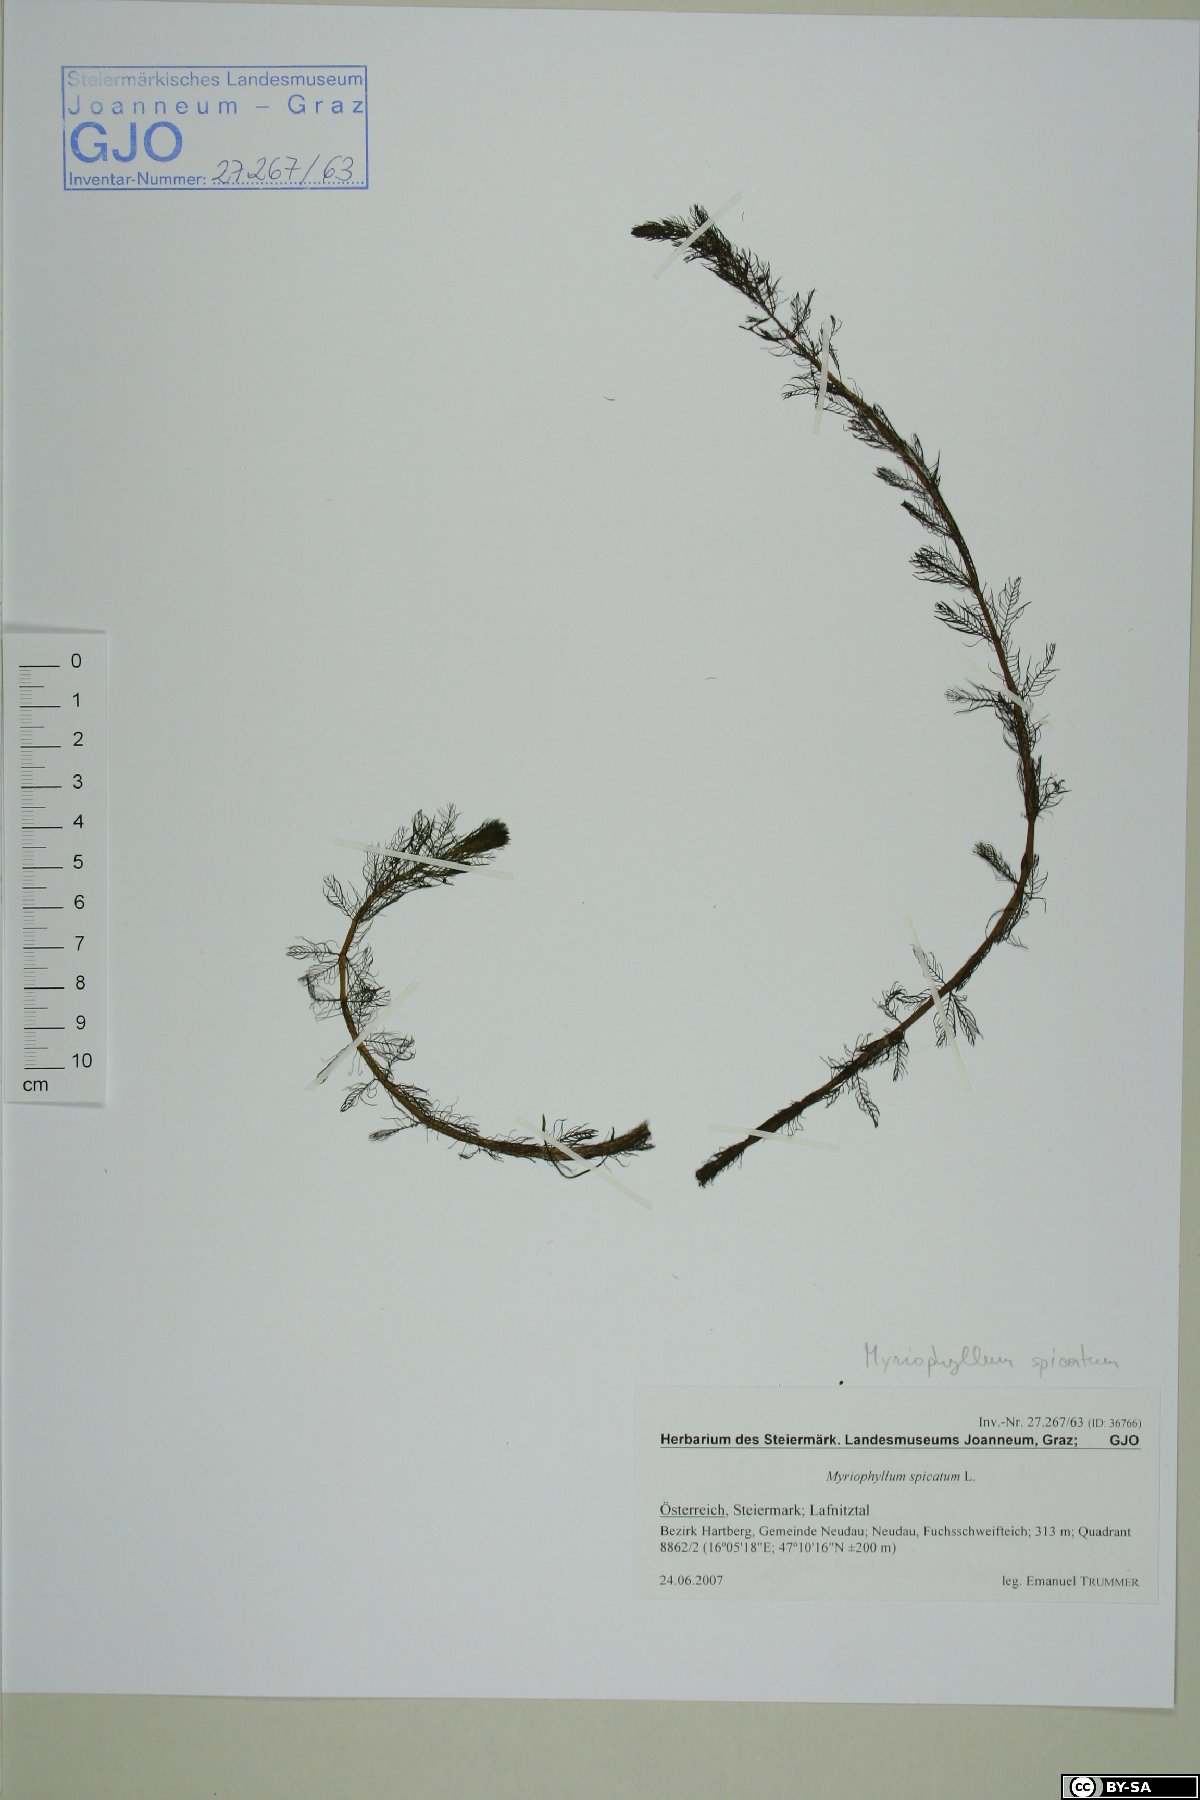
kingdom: Plantae
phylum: Tracheophyta
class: Magnoliopsida
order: Saxifragales
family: Haloragaceae
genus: Myriophyllum
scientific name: Myriophyllum spicatum
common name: Spiked water-milfoil
